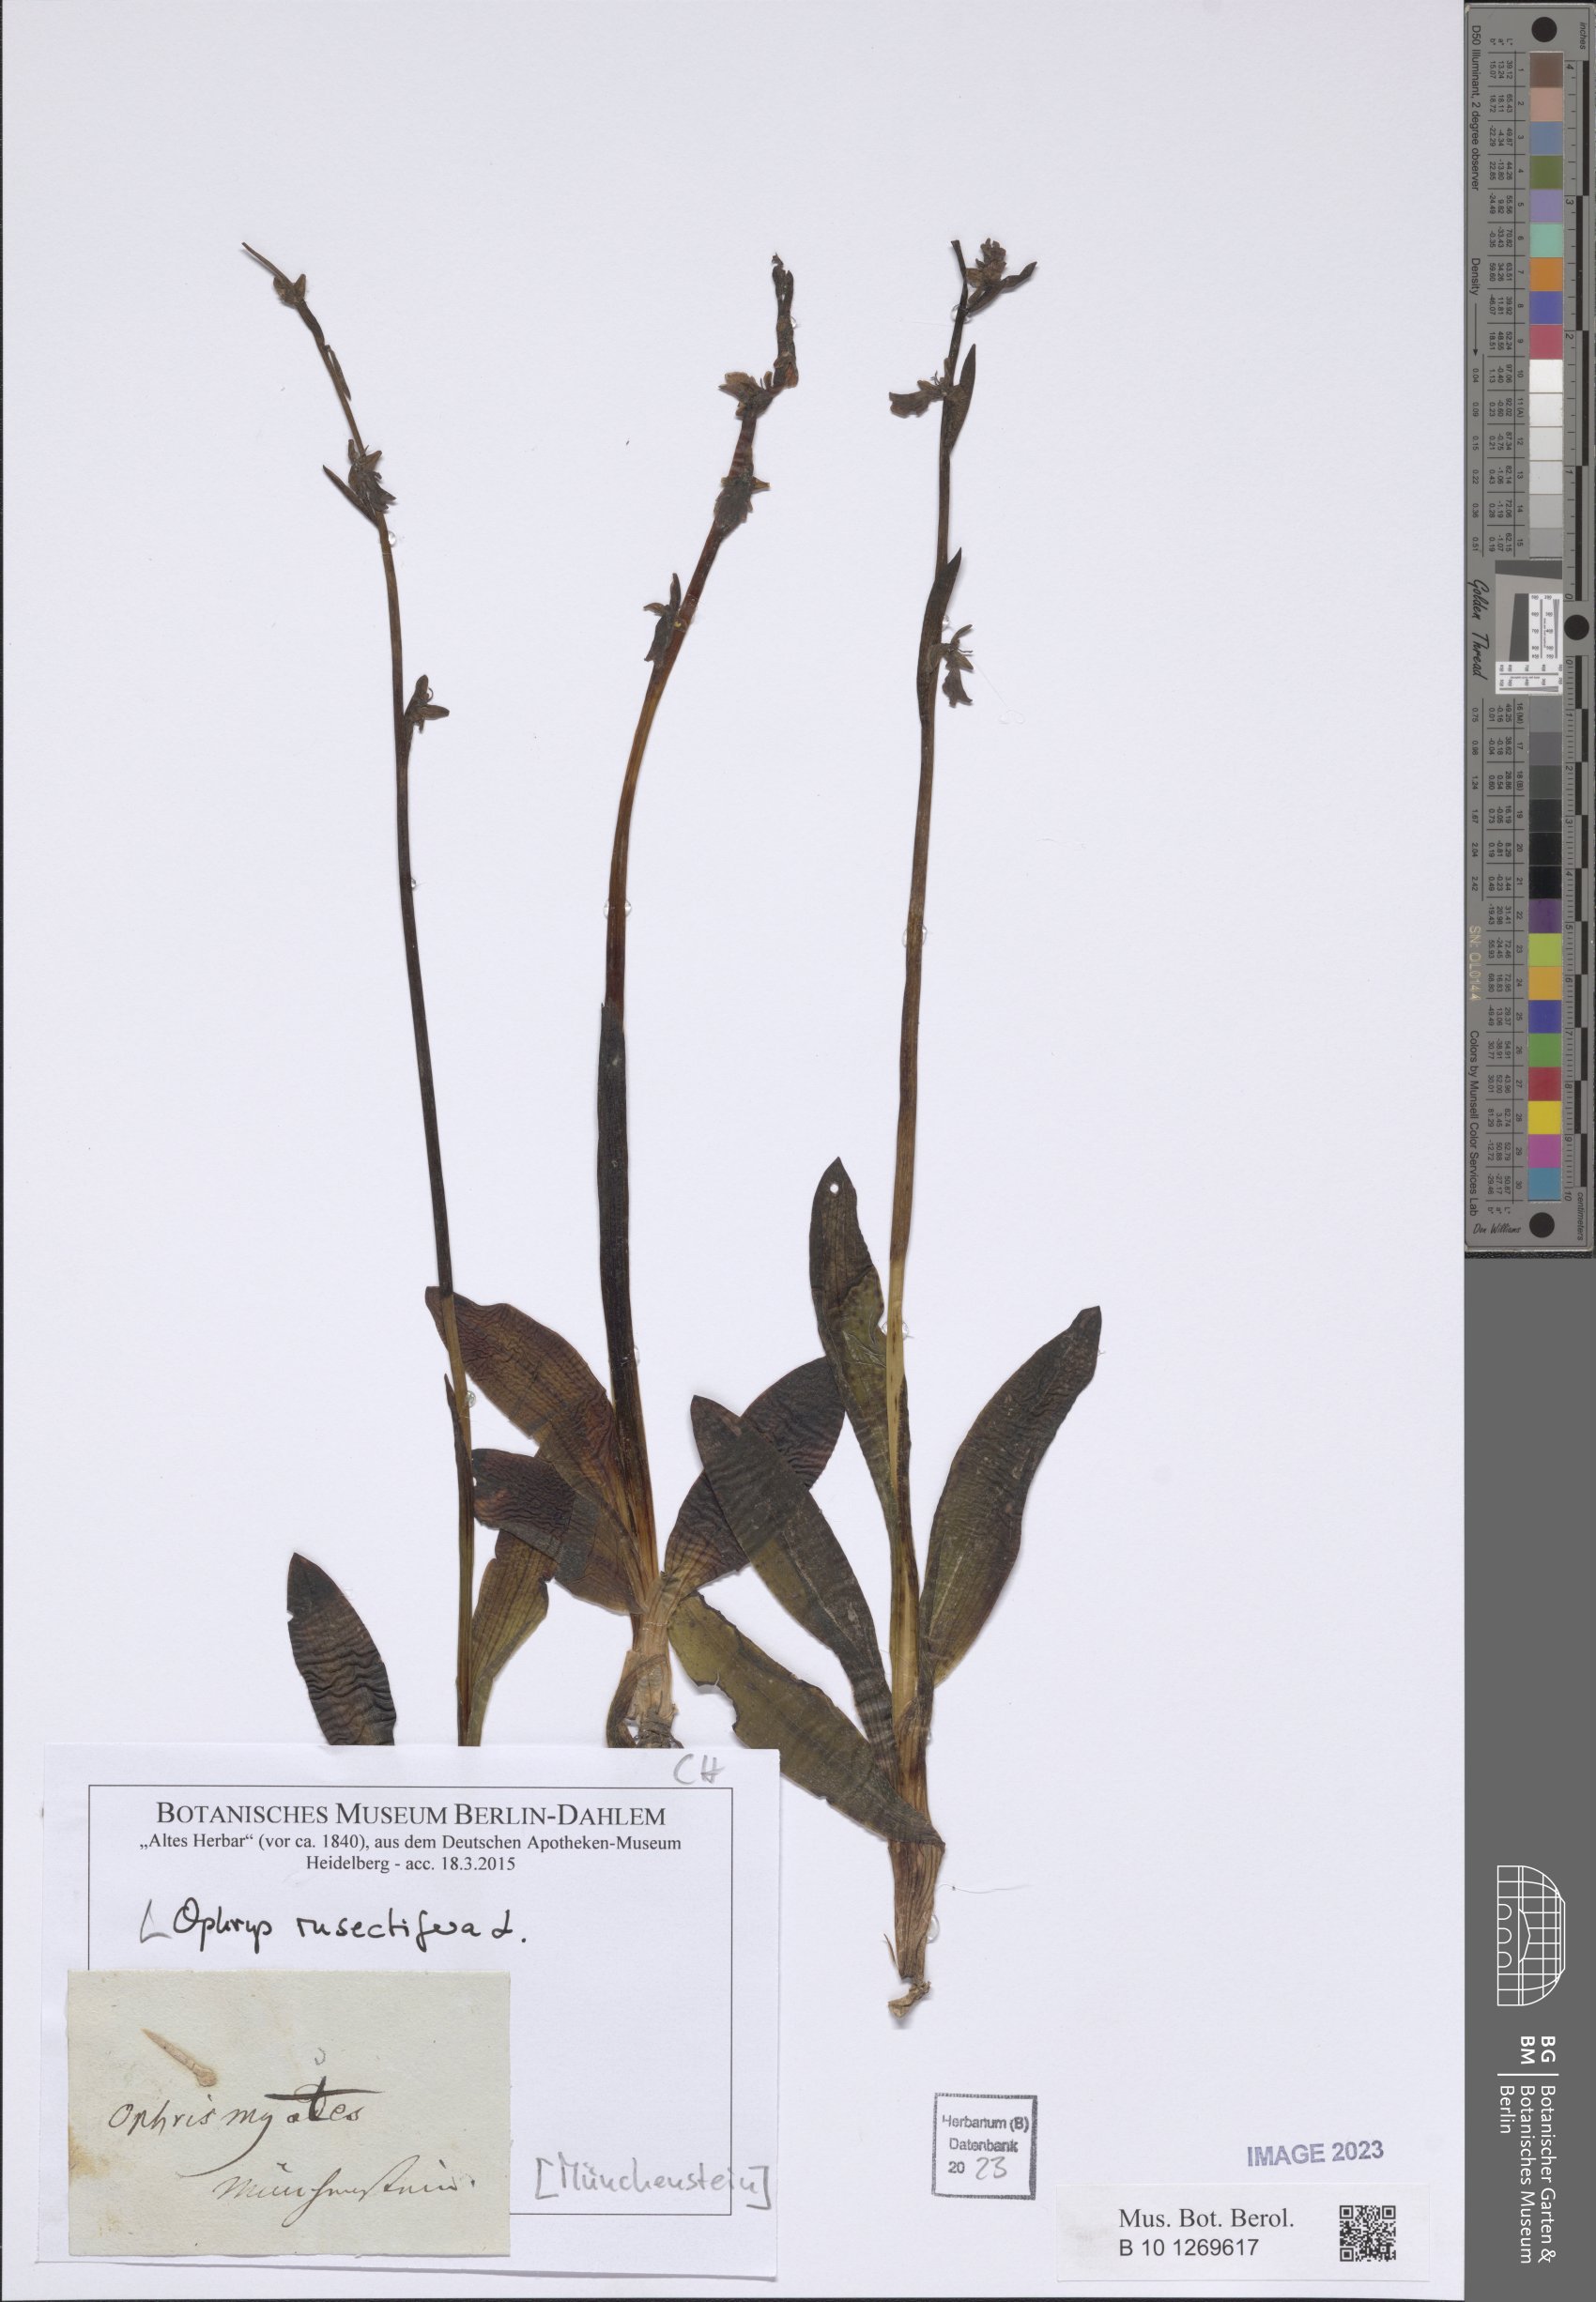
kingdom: Plantae
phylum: Tracheophyta
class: Liliopsida
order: Asparagales
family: Orchidaceae
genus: Ophrys
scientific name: Ophrys insectifera
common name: Fly orchid
